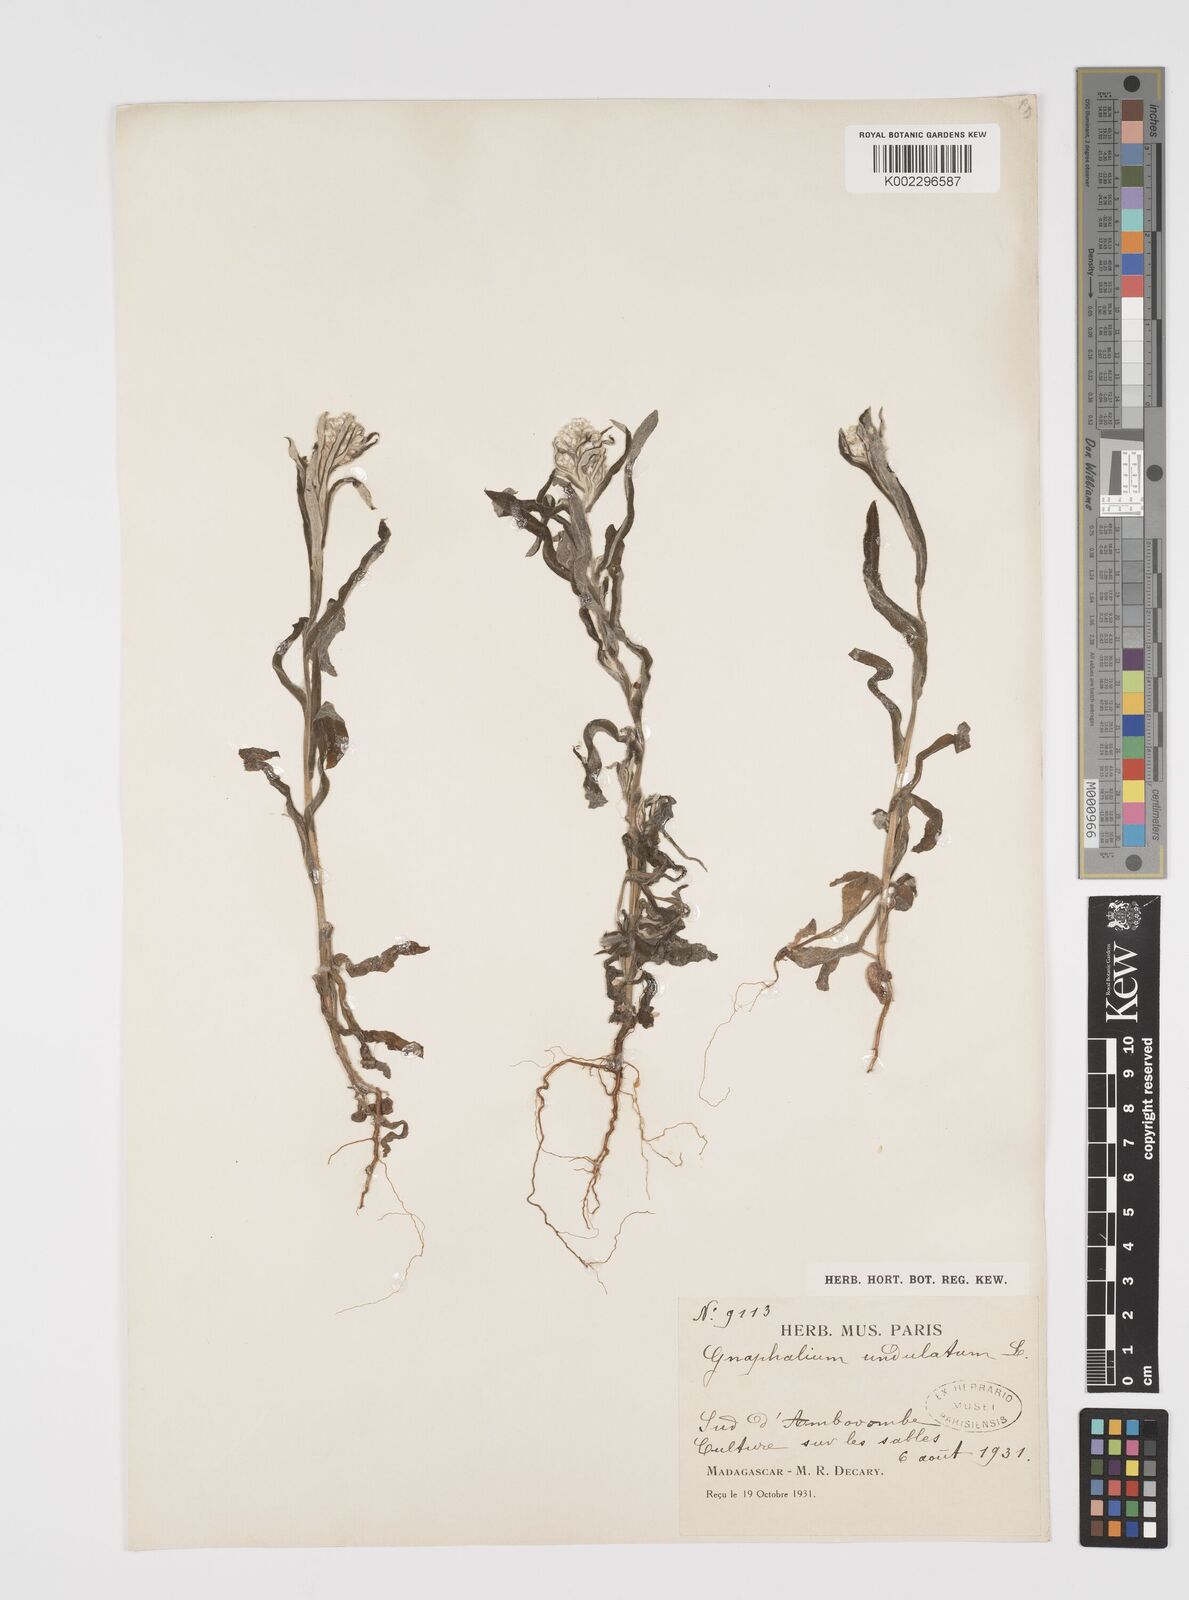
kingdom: Plantae
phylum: Tracheophyta
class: Magnoliopsida
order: Asterales
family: Asteraceae
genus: Pseudognaphalium
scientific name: Pseudognaphalium oligandrum
